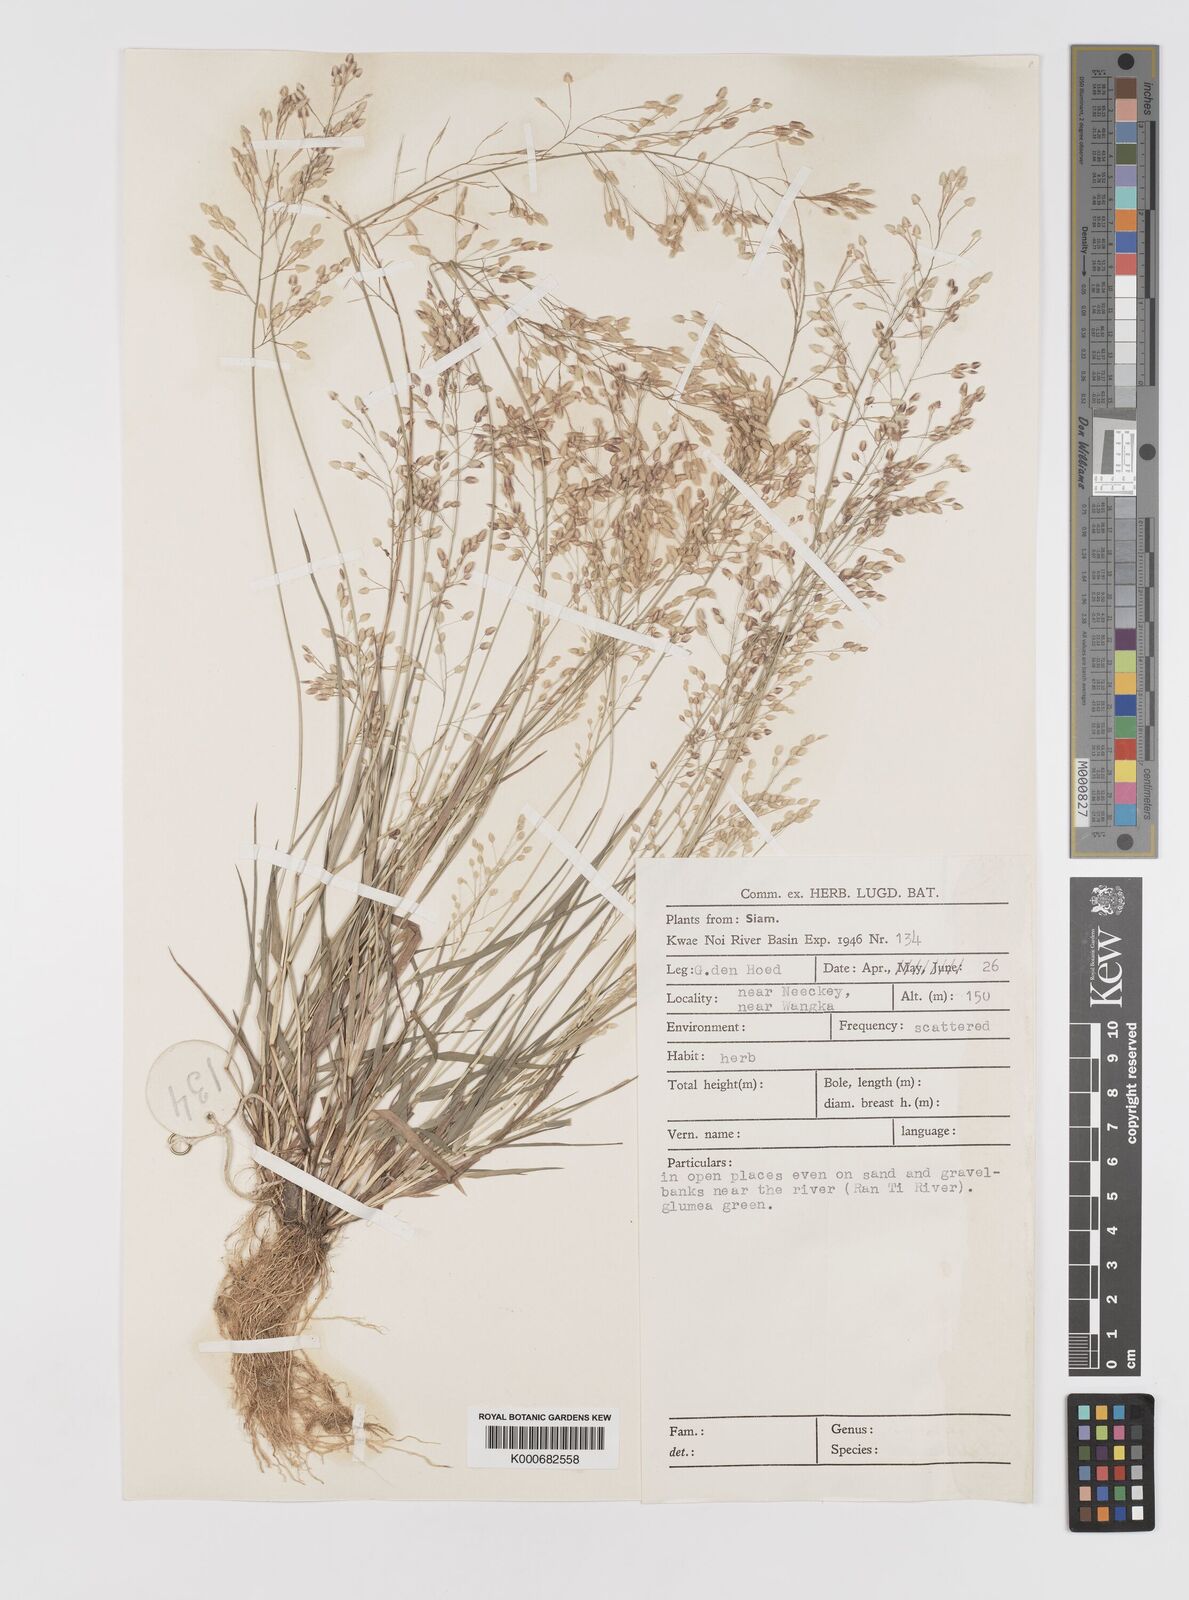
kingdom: Plantae
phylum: Tracheophyta
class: Liliopsida
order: Poales
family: Poaceae
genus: Eragrostis
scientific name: Eragrostis unioloides
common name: Chinese lovegrass
